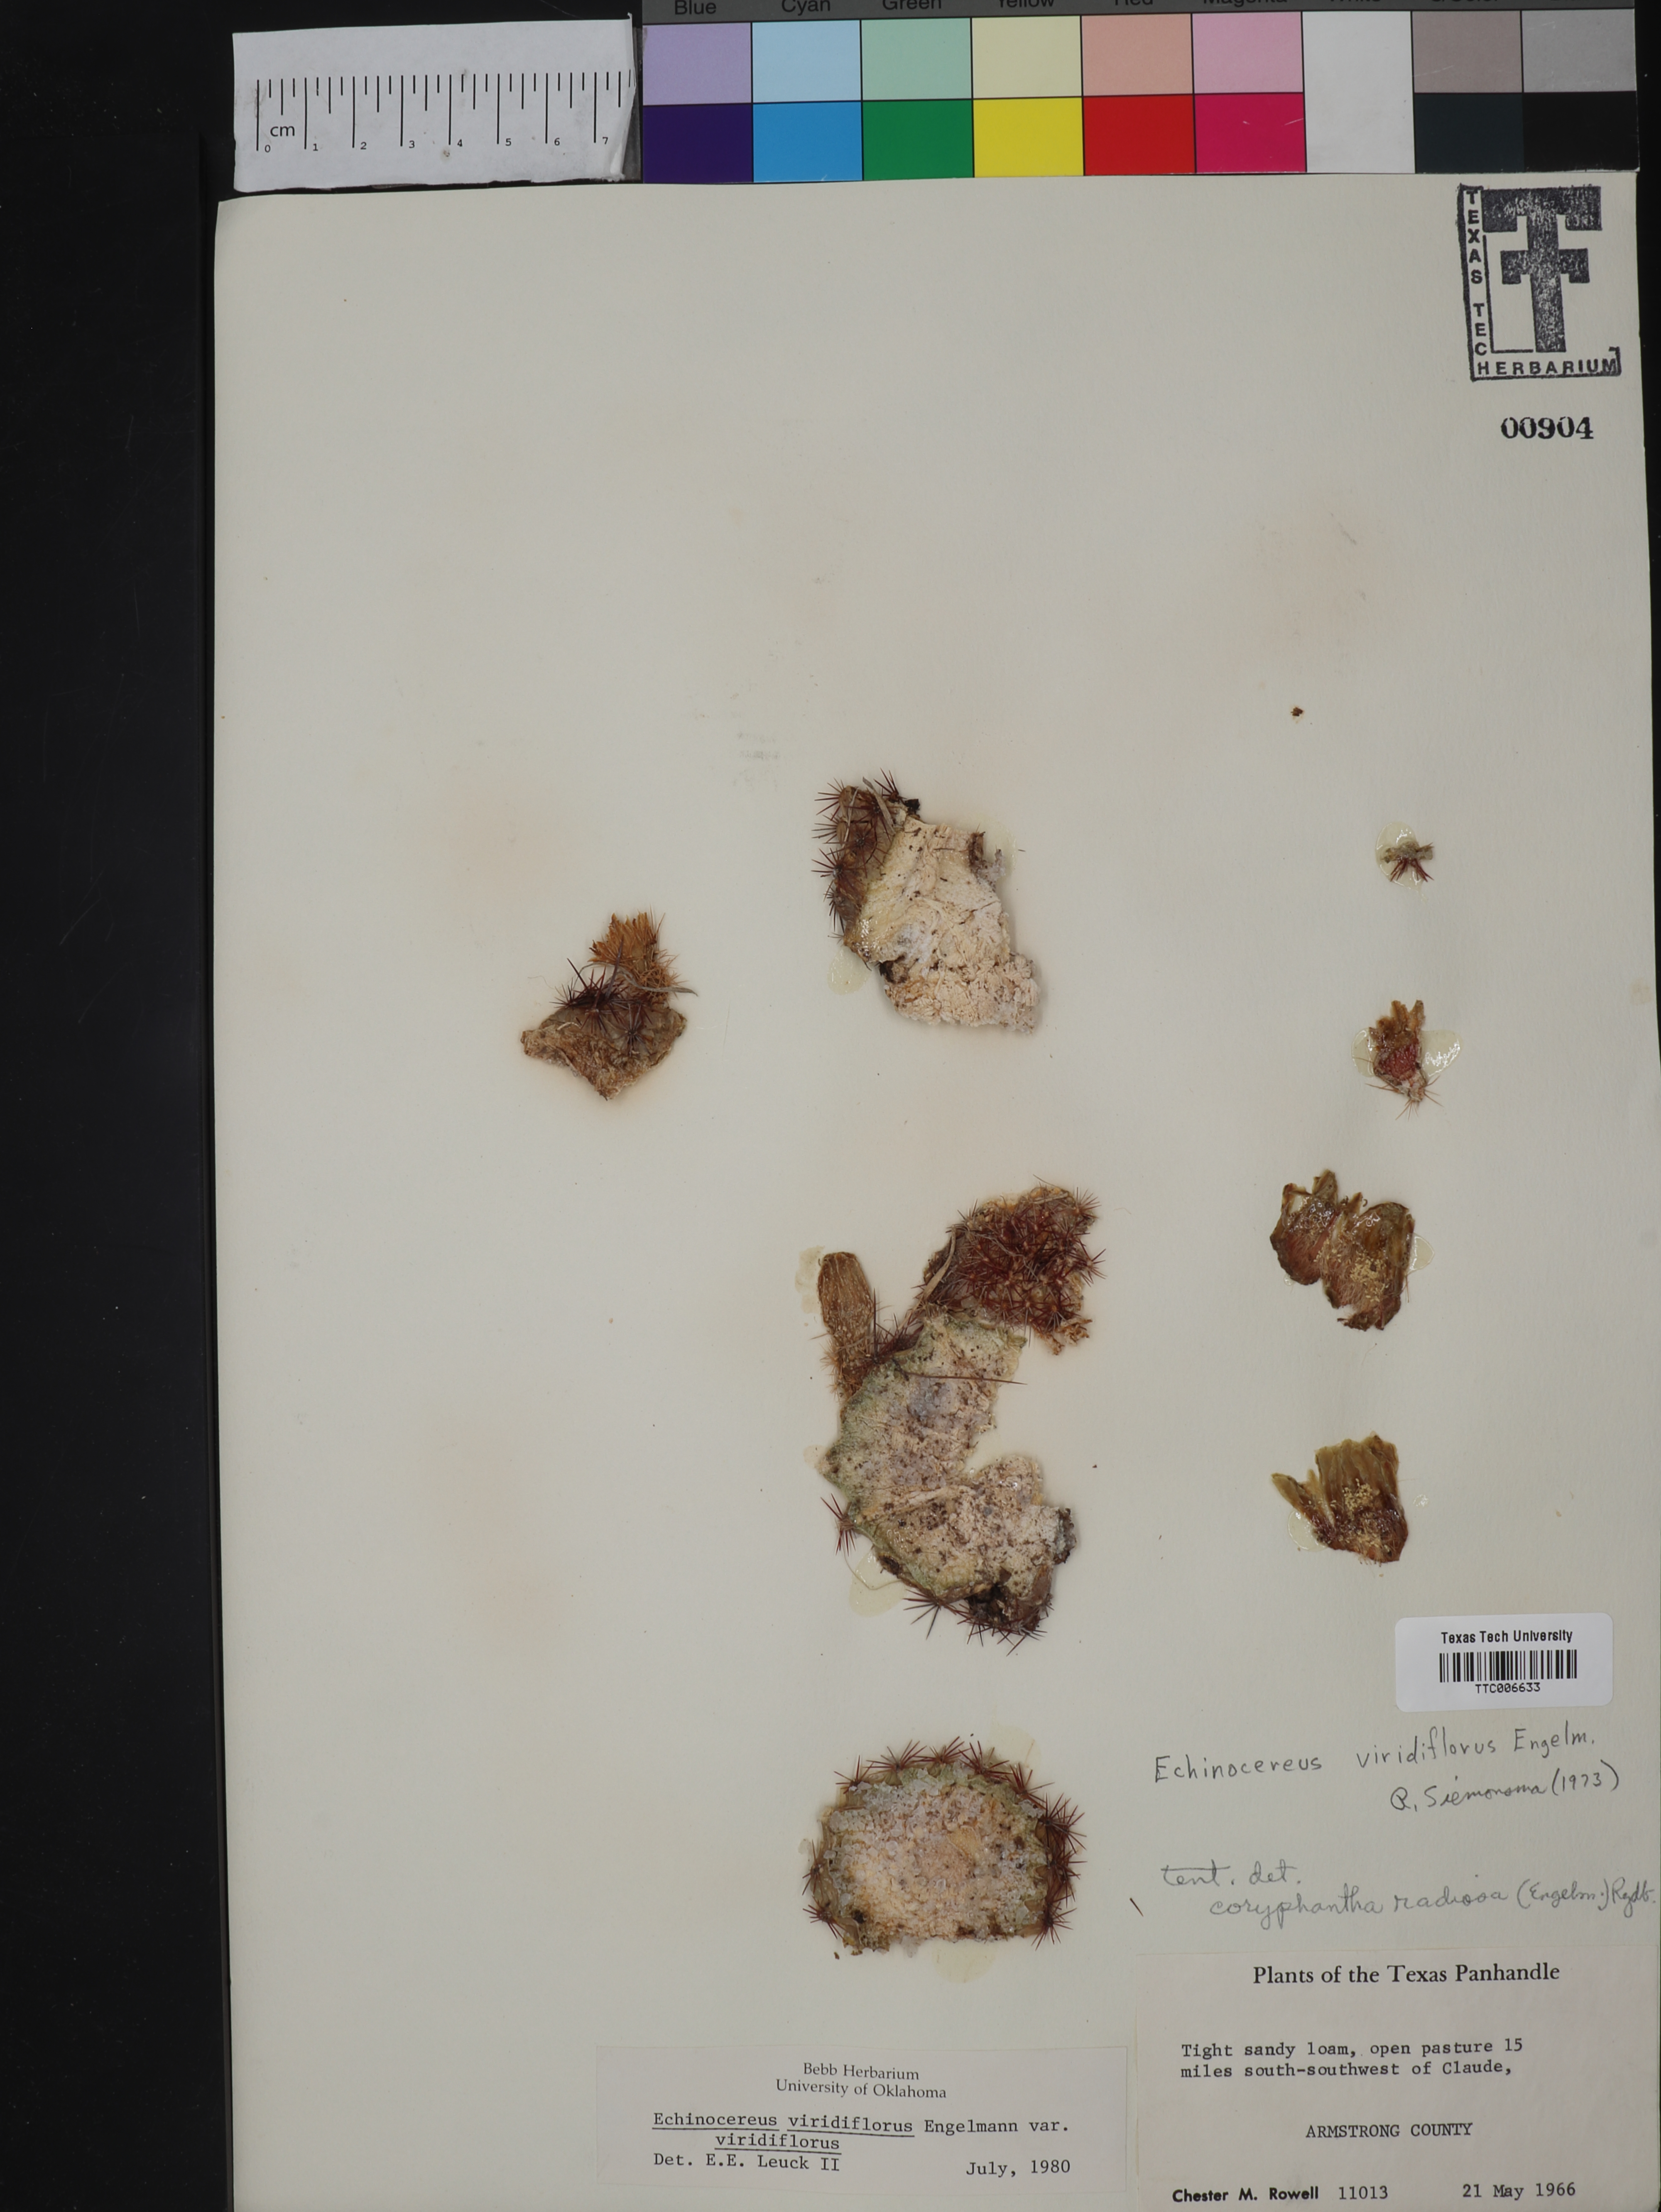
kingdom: Plantae
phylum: Tracheophyta
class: Magnoliopsida
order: Caryophyllales
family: Cactaceae
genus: Echinocereus
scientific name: Echinocereus viridiflorus
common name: Nylon hedgehog cactus
